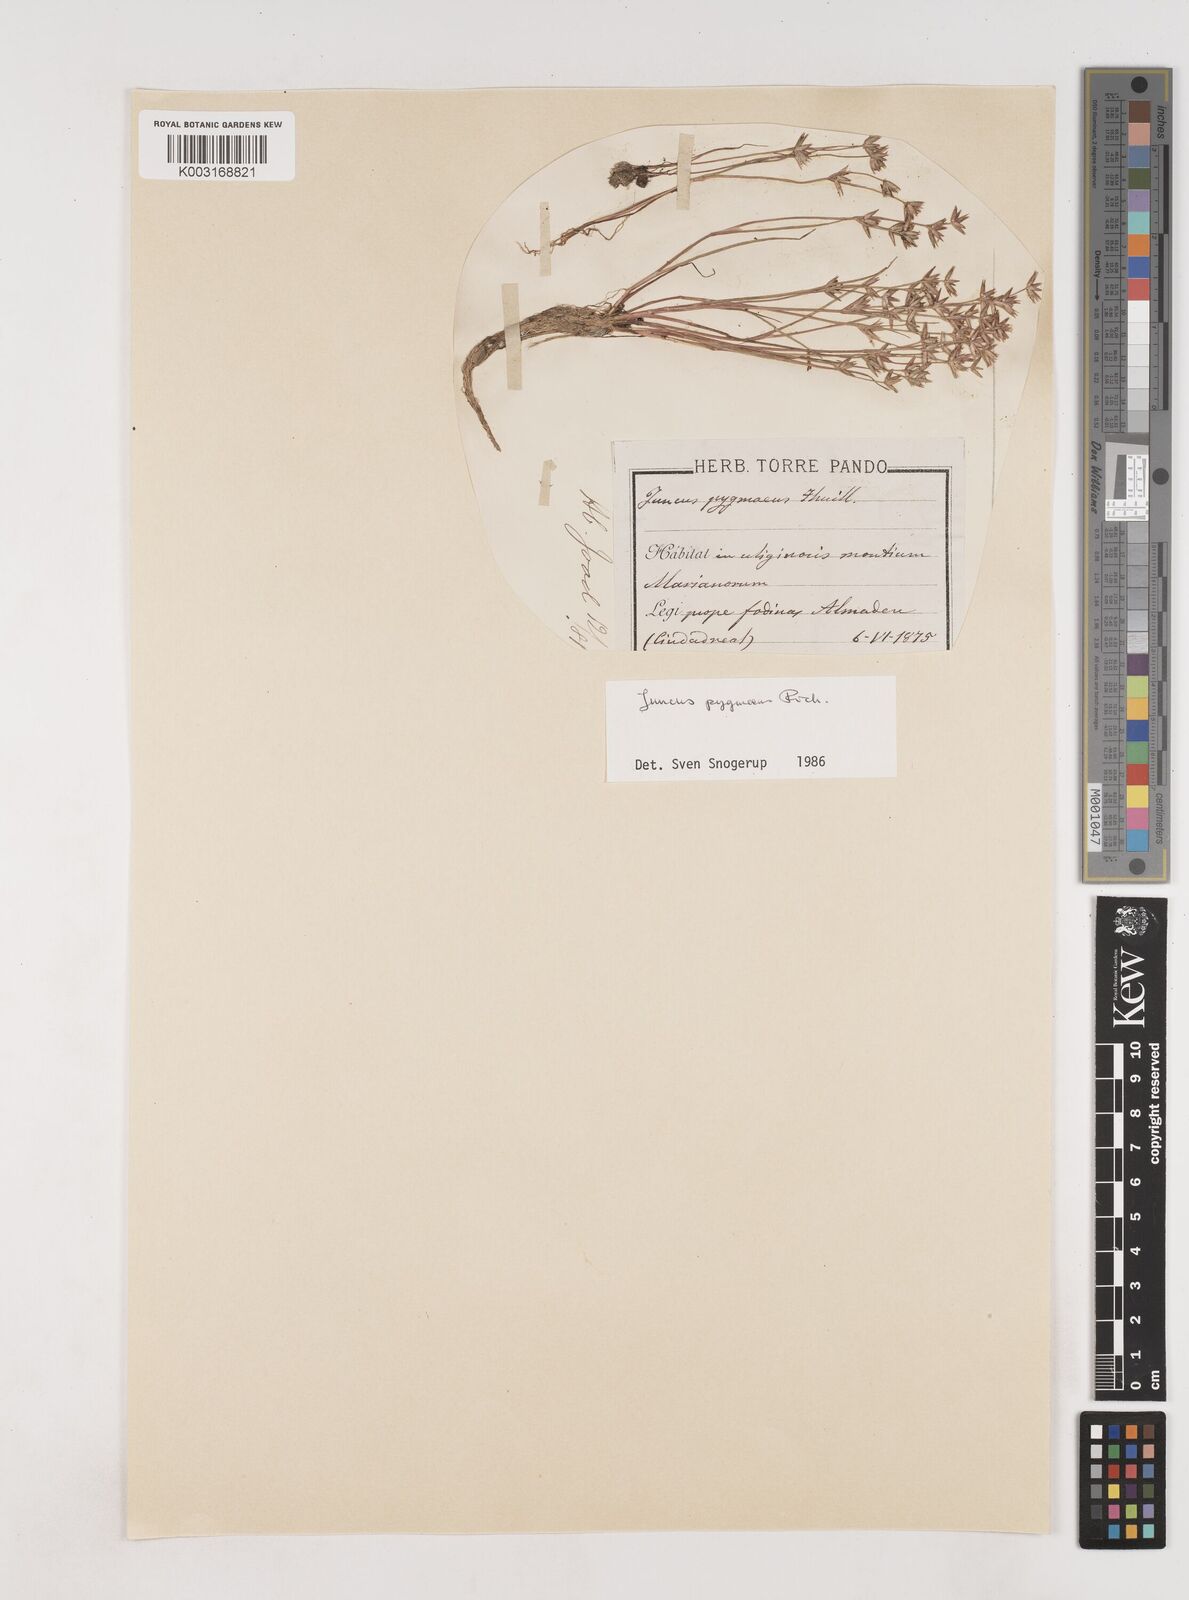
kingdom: Plantae
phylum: Tracheophyta
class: Liliopsida
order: Poales
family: Juncaceae
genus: Juncus
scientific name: Juncus pygmaeus
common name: Pigmy rush
